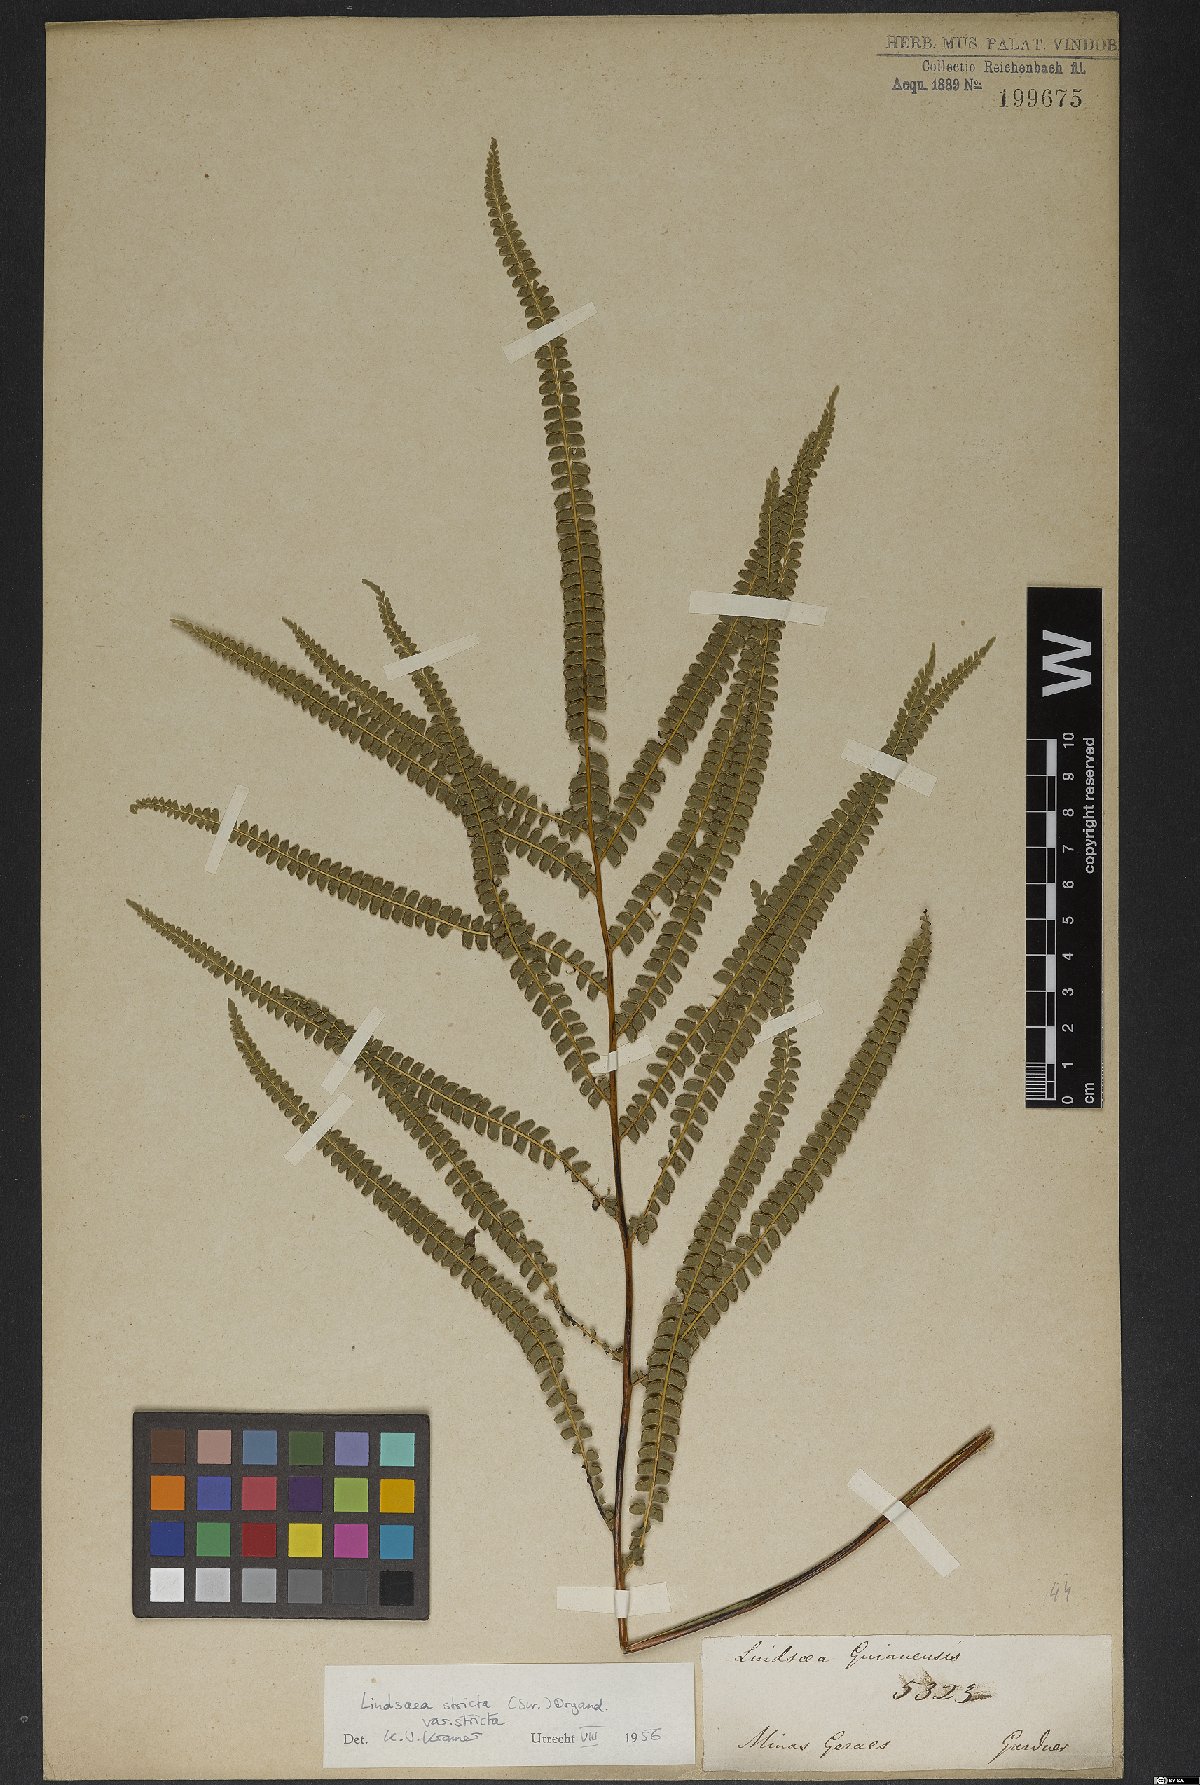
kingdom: Plantae
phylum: Tracheophyta
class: Polypodiopsida
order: Polypodiales
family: Lindsaeaceae
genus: Lindsaea
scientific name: Lindsaea stricta
